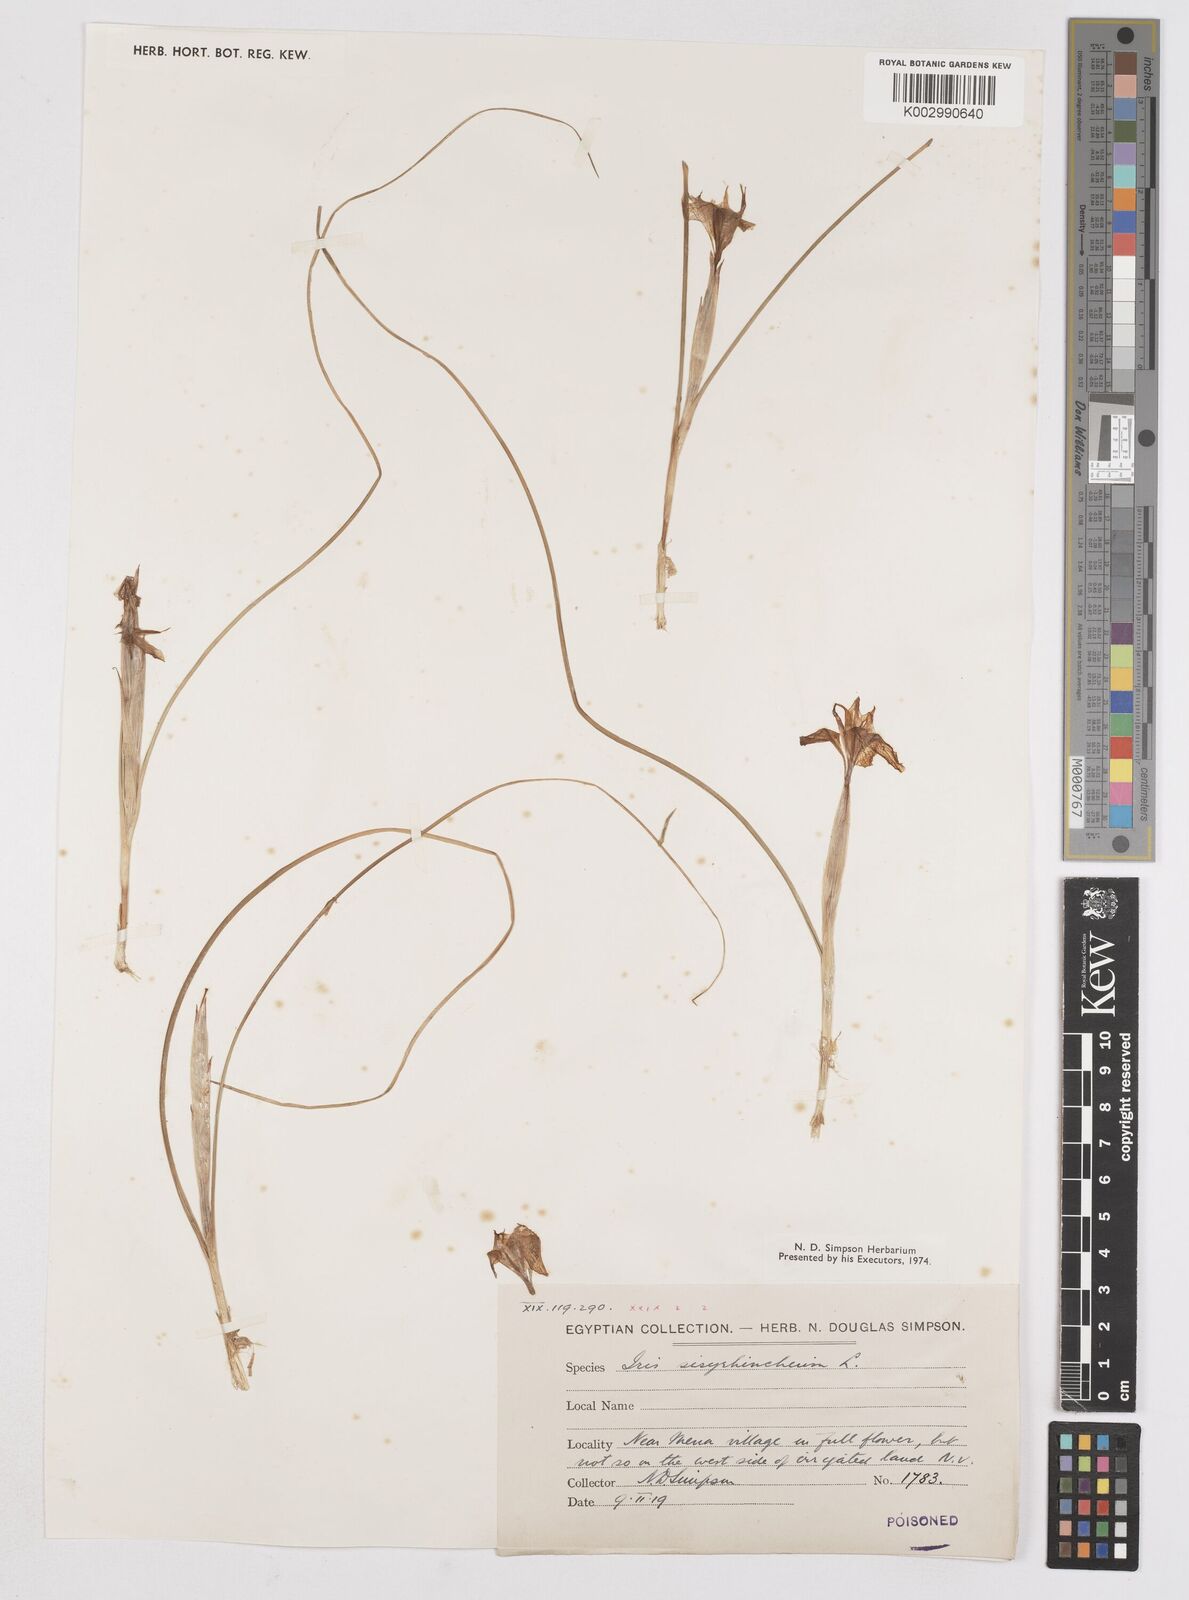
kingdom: Plantae
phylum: Tracheophyta
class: Liliopsida
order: Asparagales
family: Iridaceae
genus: Moraea
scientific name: Moraea sisyrinchium
